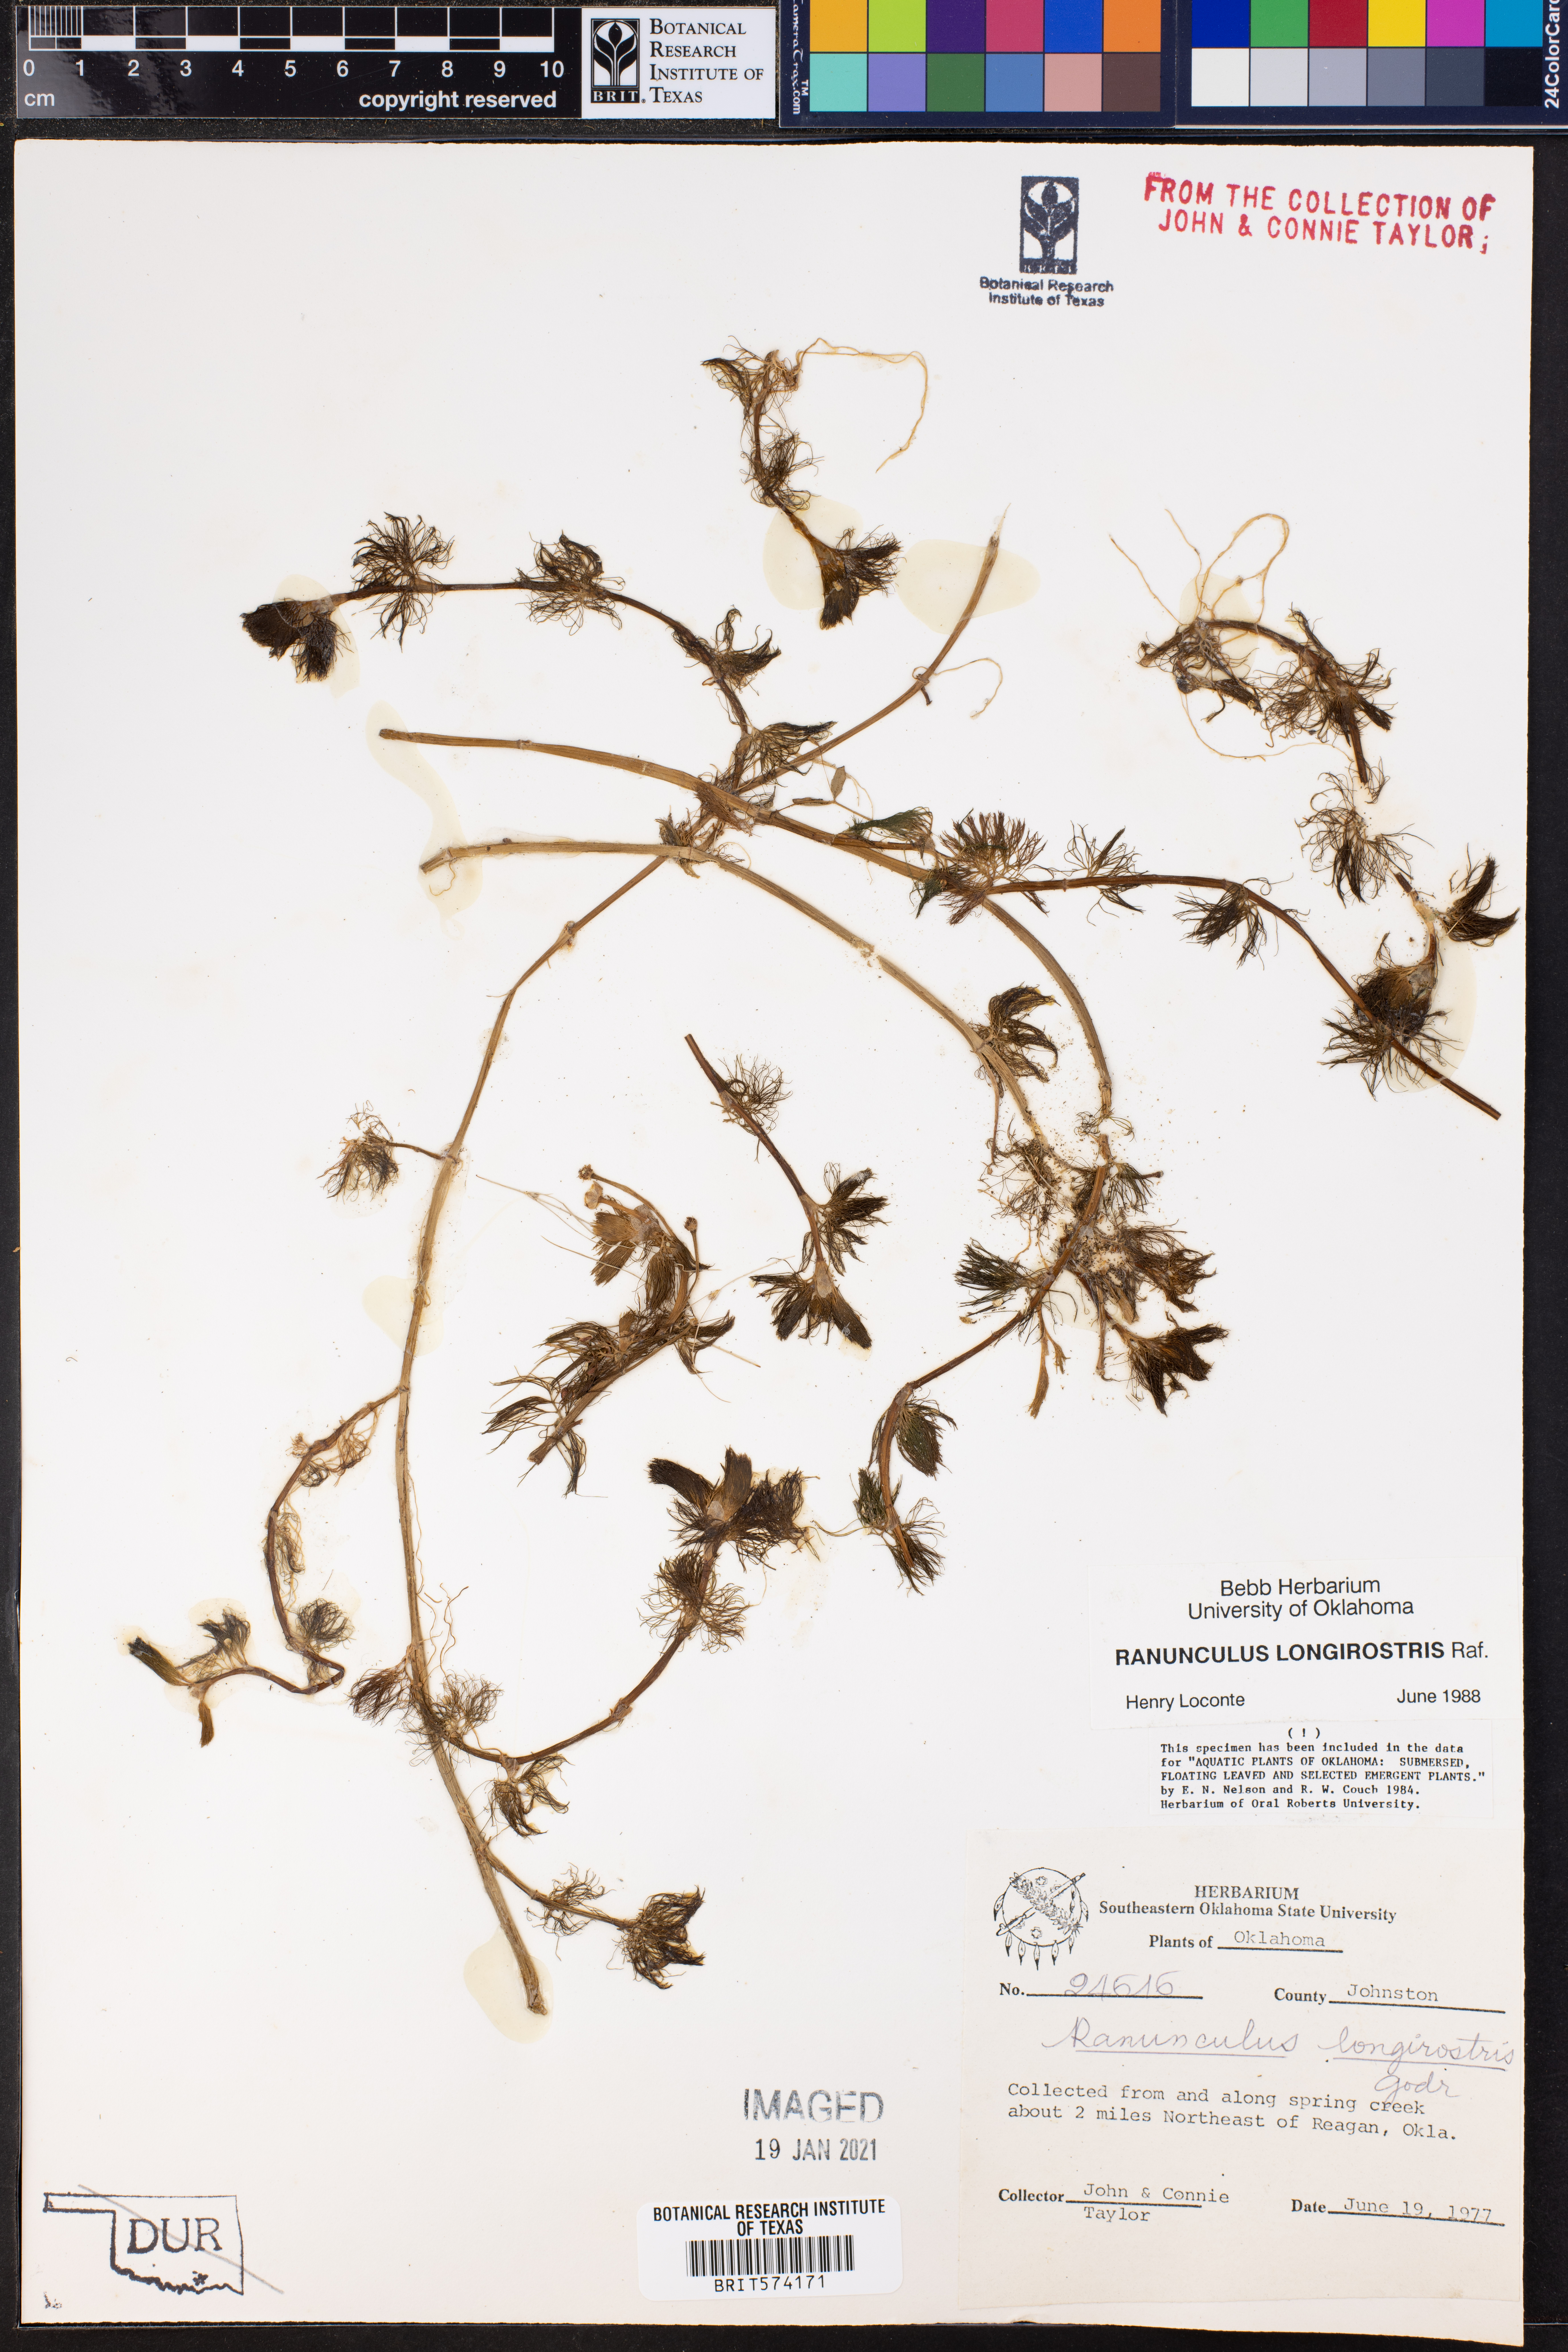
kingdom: Plantae
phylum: Tracheophyta
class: Magnoliopsida
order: Ranunculales
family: Ranunculaceae
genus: Ranunculus
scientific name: Ranunculus longirostris
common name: Curly white water-crowfoot
